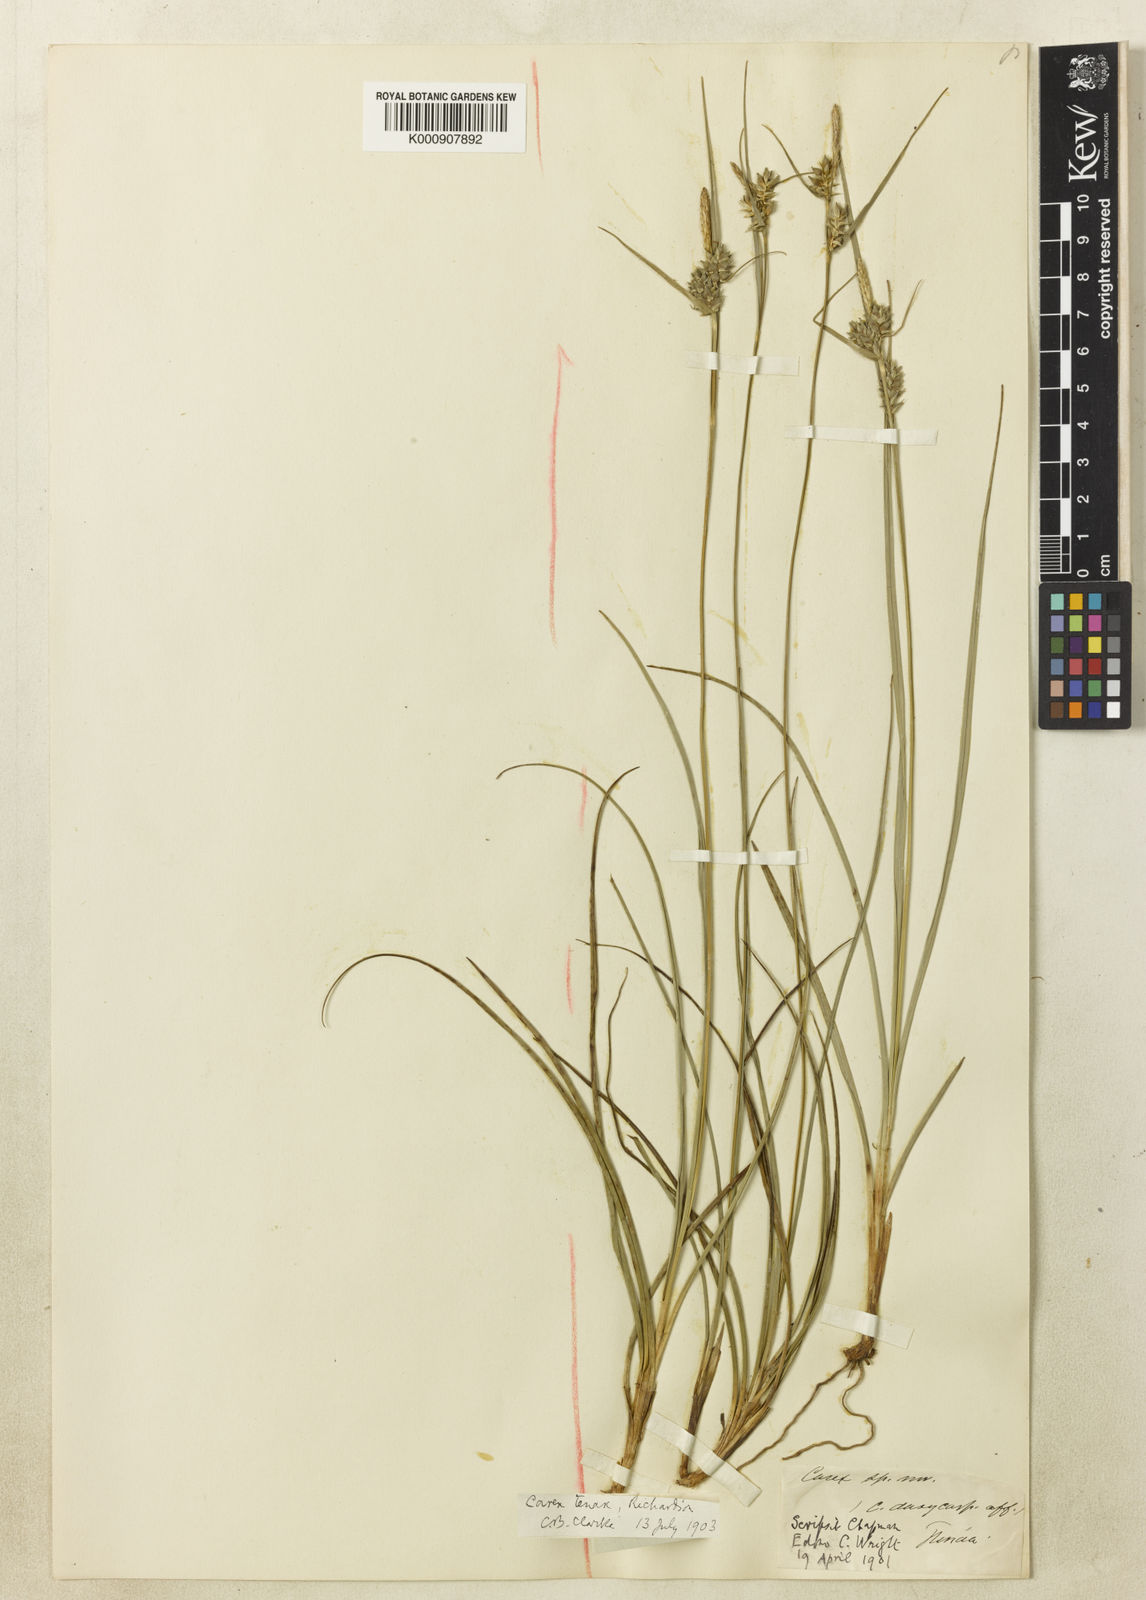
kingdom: Plantae
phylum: Tracheophyta
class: Liliopsida
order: Poales
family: Cyperaceae
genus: Carex
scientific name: Carex tenax
